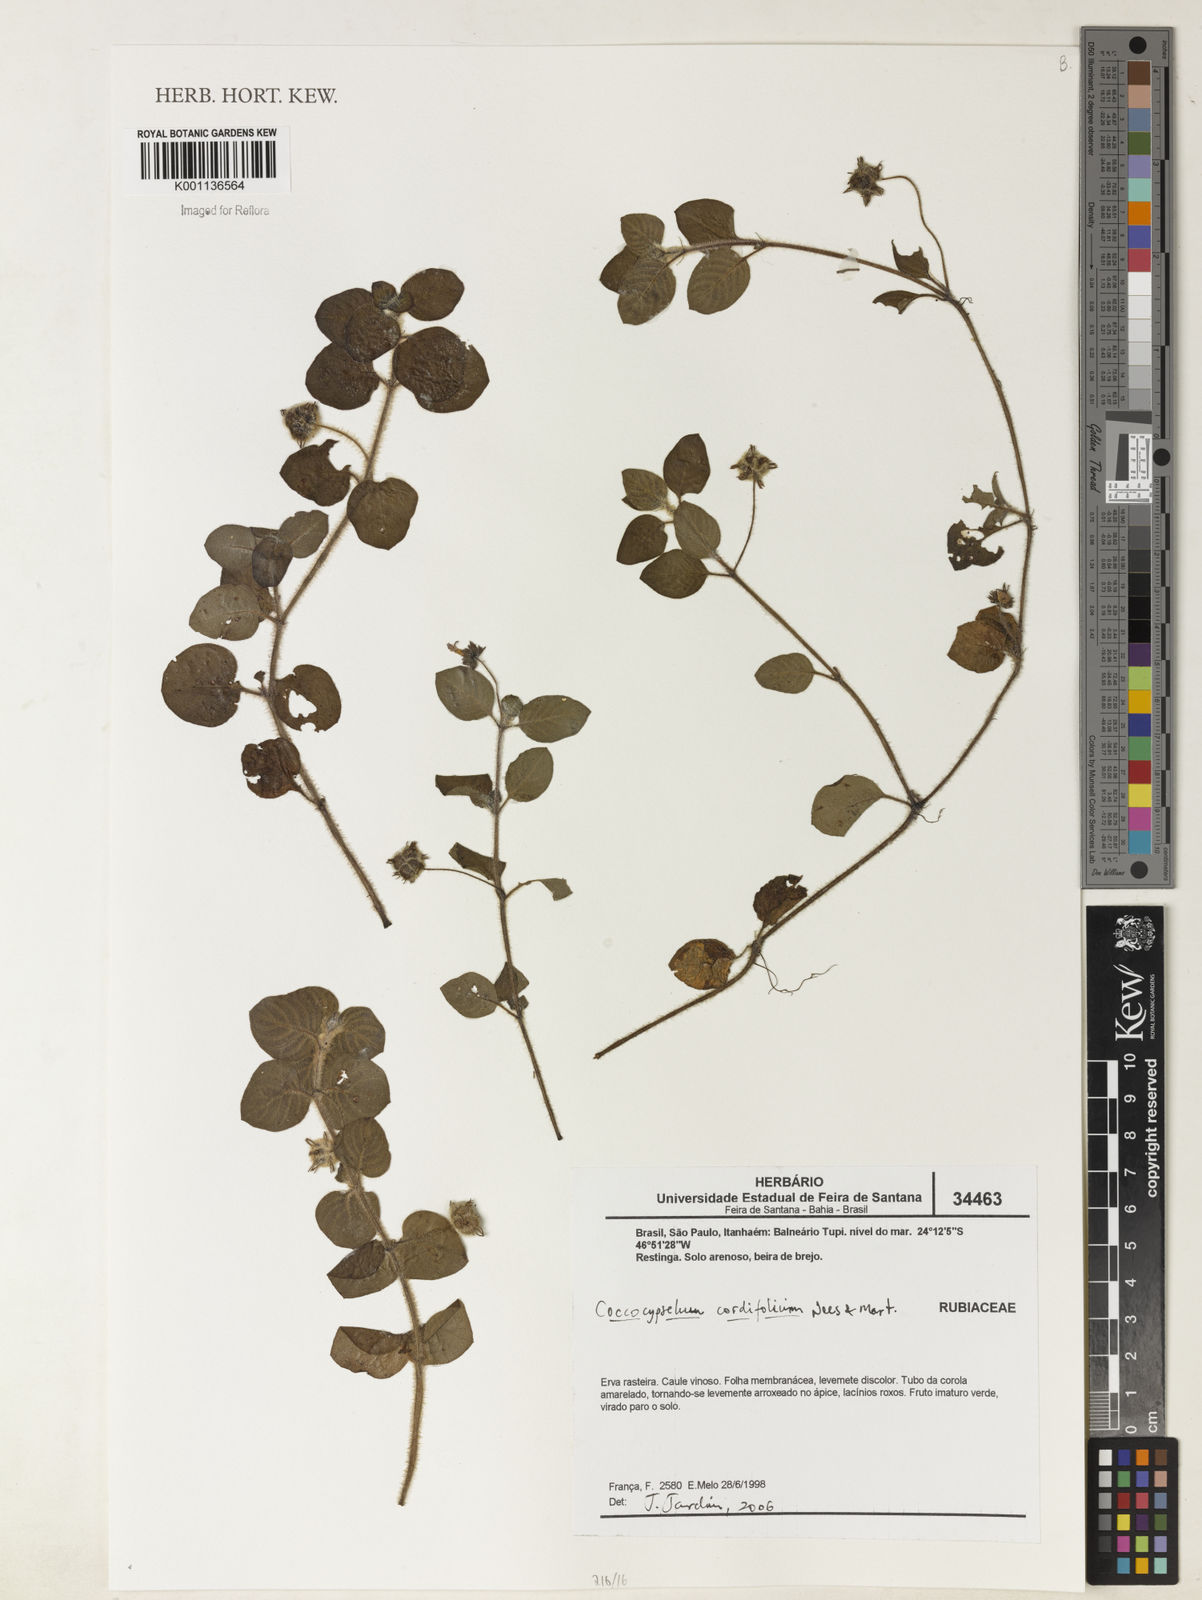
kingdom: Plantae
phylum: Tracheophyta
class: Magnoliopsida
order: Gentianales
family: Rubiaceae
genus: Coccocypselum
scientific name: Coccocypselum cordifolium
